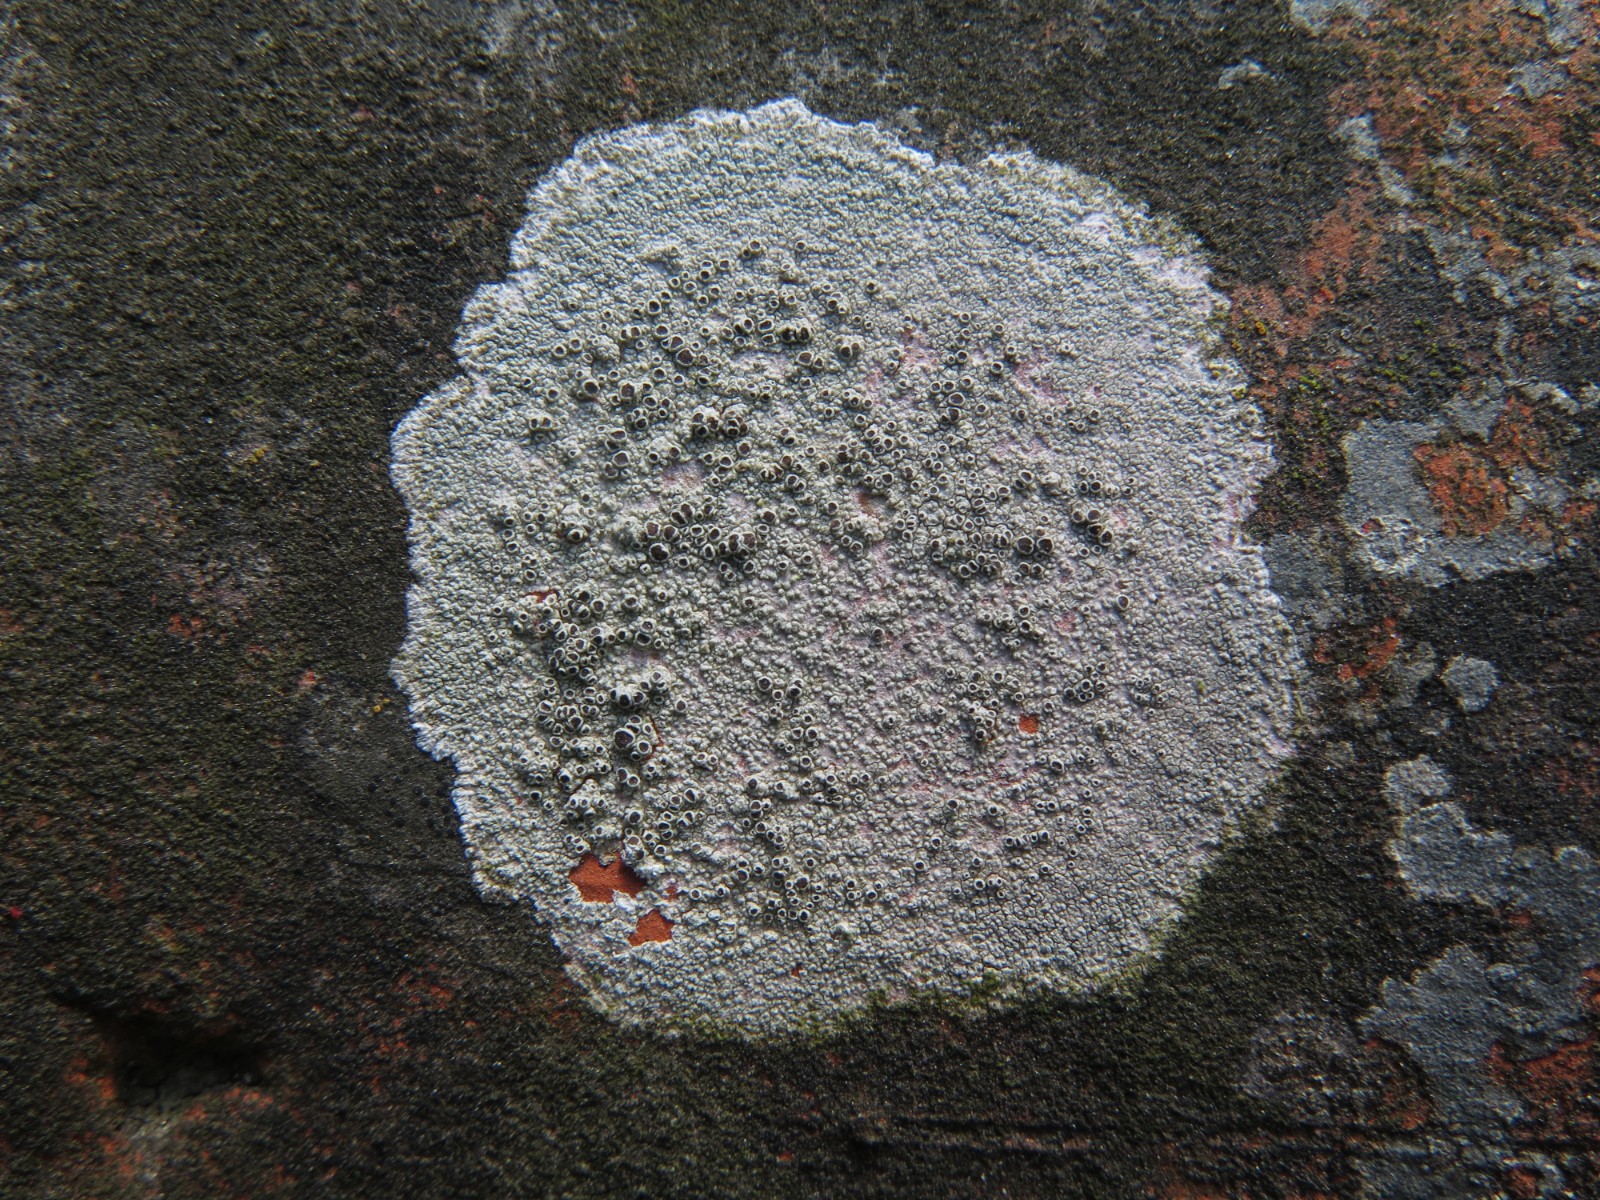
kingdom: Fungi
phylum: Ascomycota
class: Lecanoromycetes
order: Lecanorales
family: Lecanoraceae
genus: Lecanora
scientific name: Lecanora campestris
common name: mur-kantskivelav
